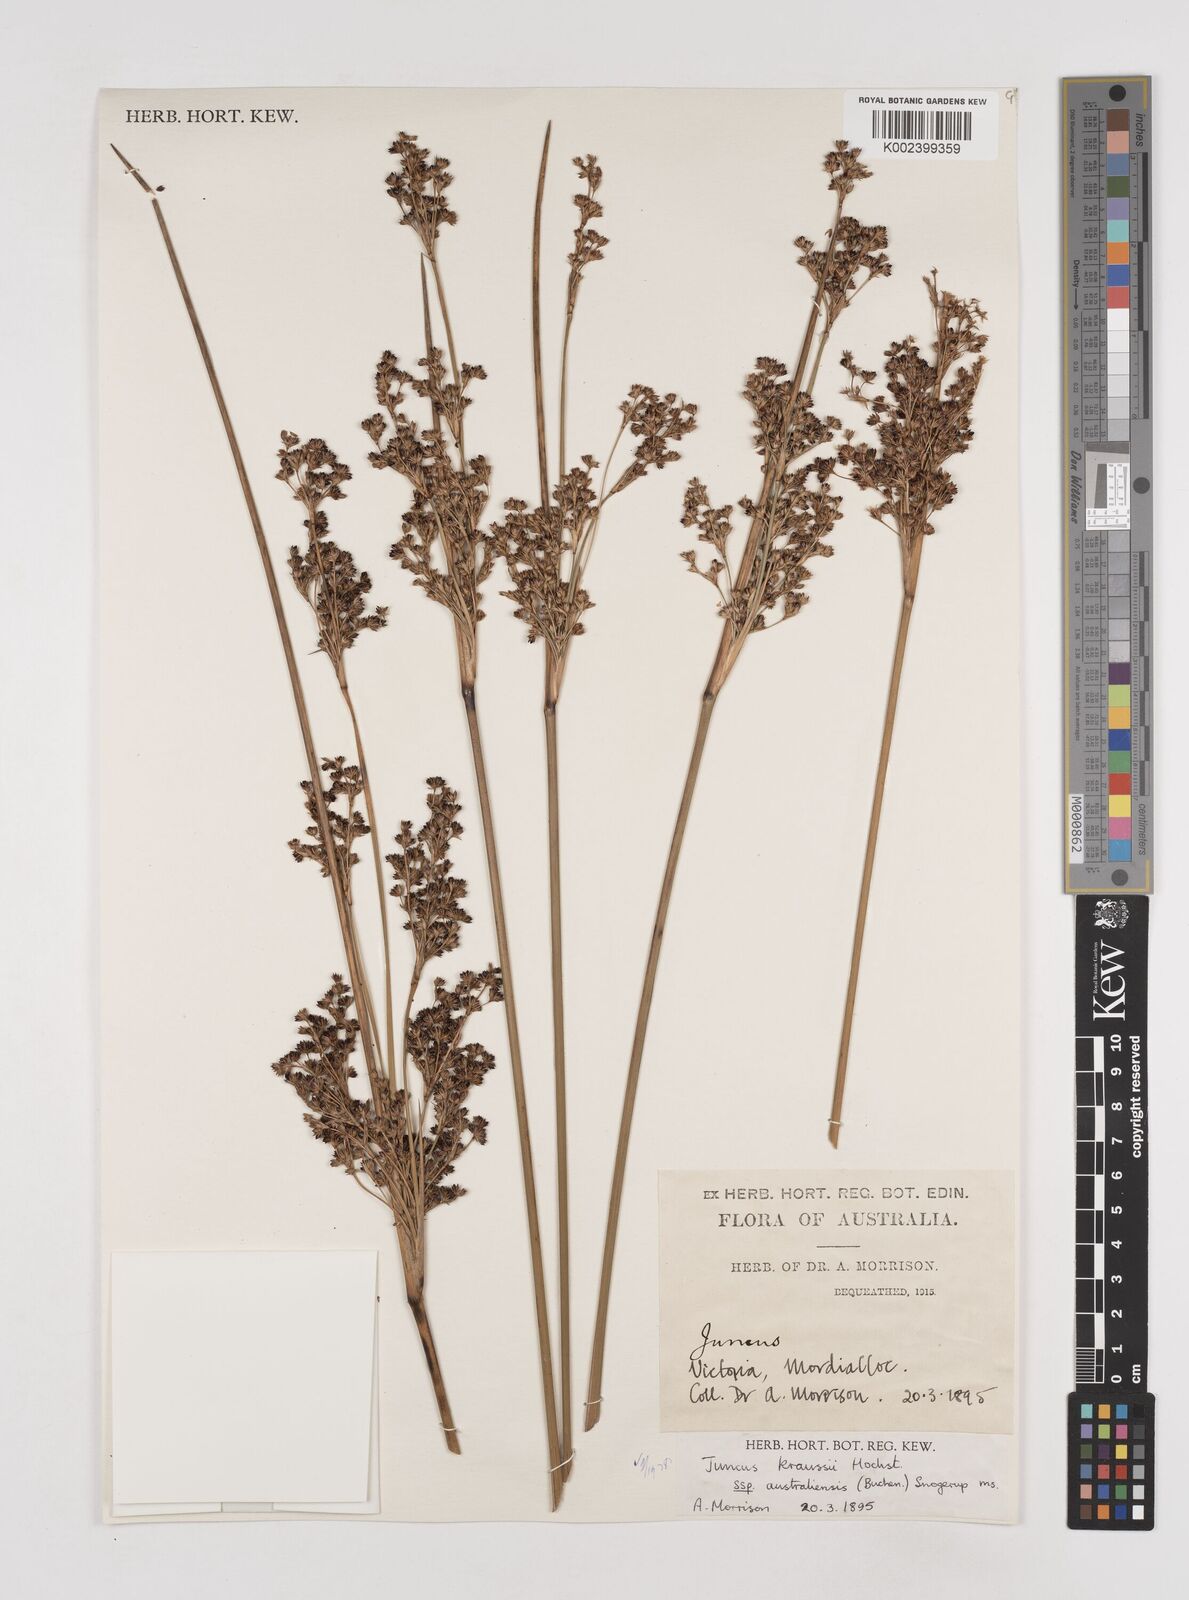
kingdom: Plantae
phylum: Tracheophyta
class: Liliopsida
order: Poales
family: Juncaceae
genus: Juncus
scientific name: Juncus kraussii
